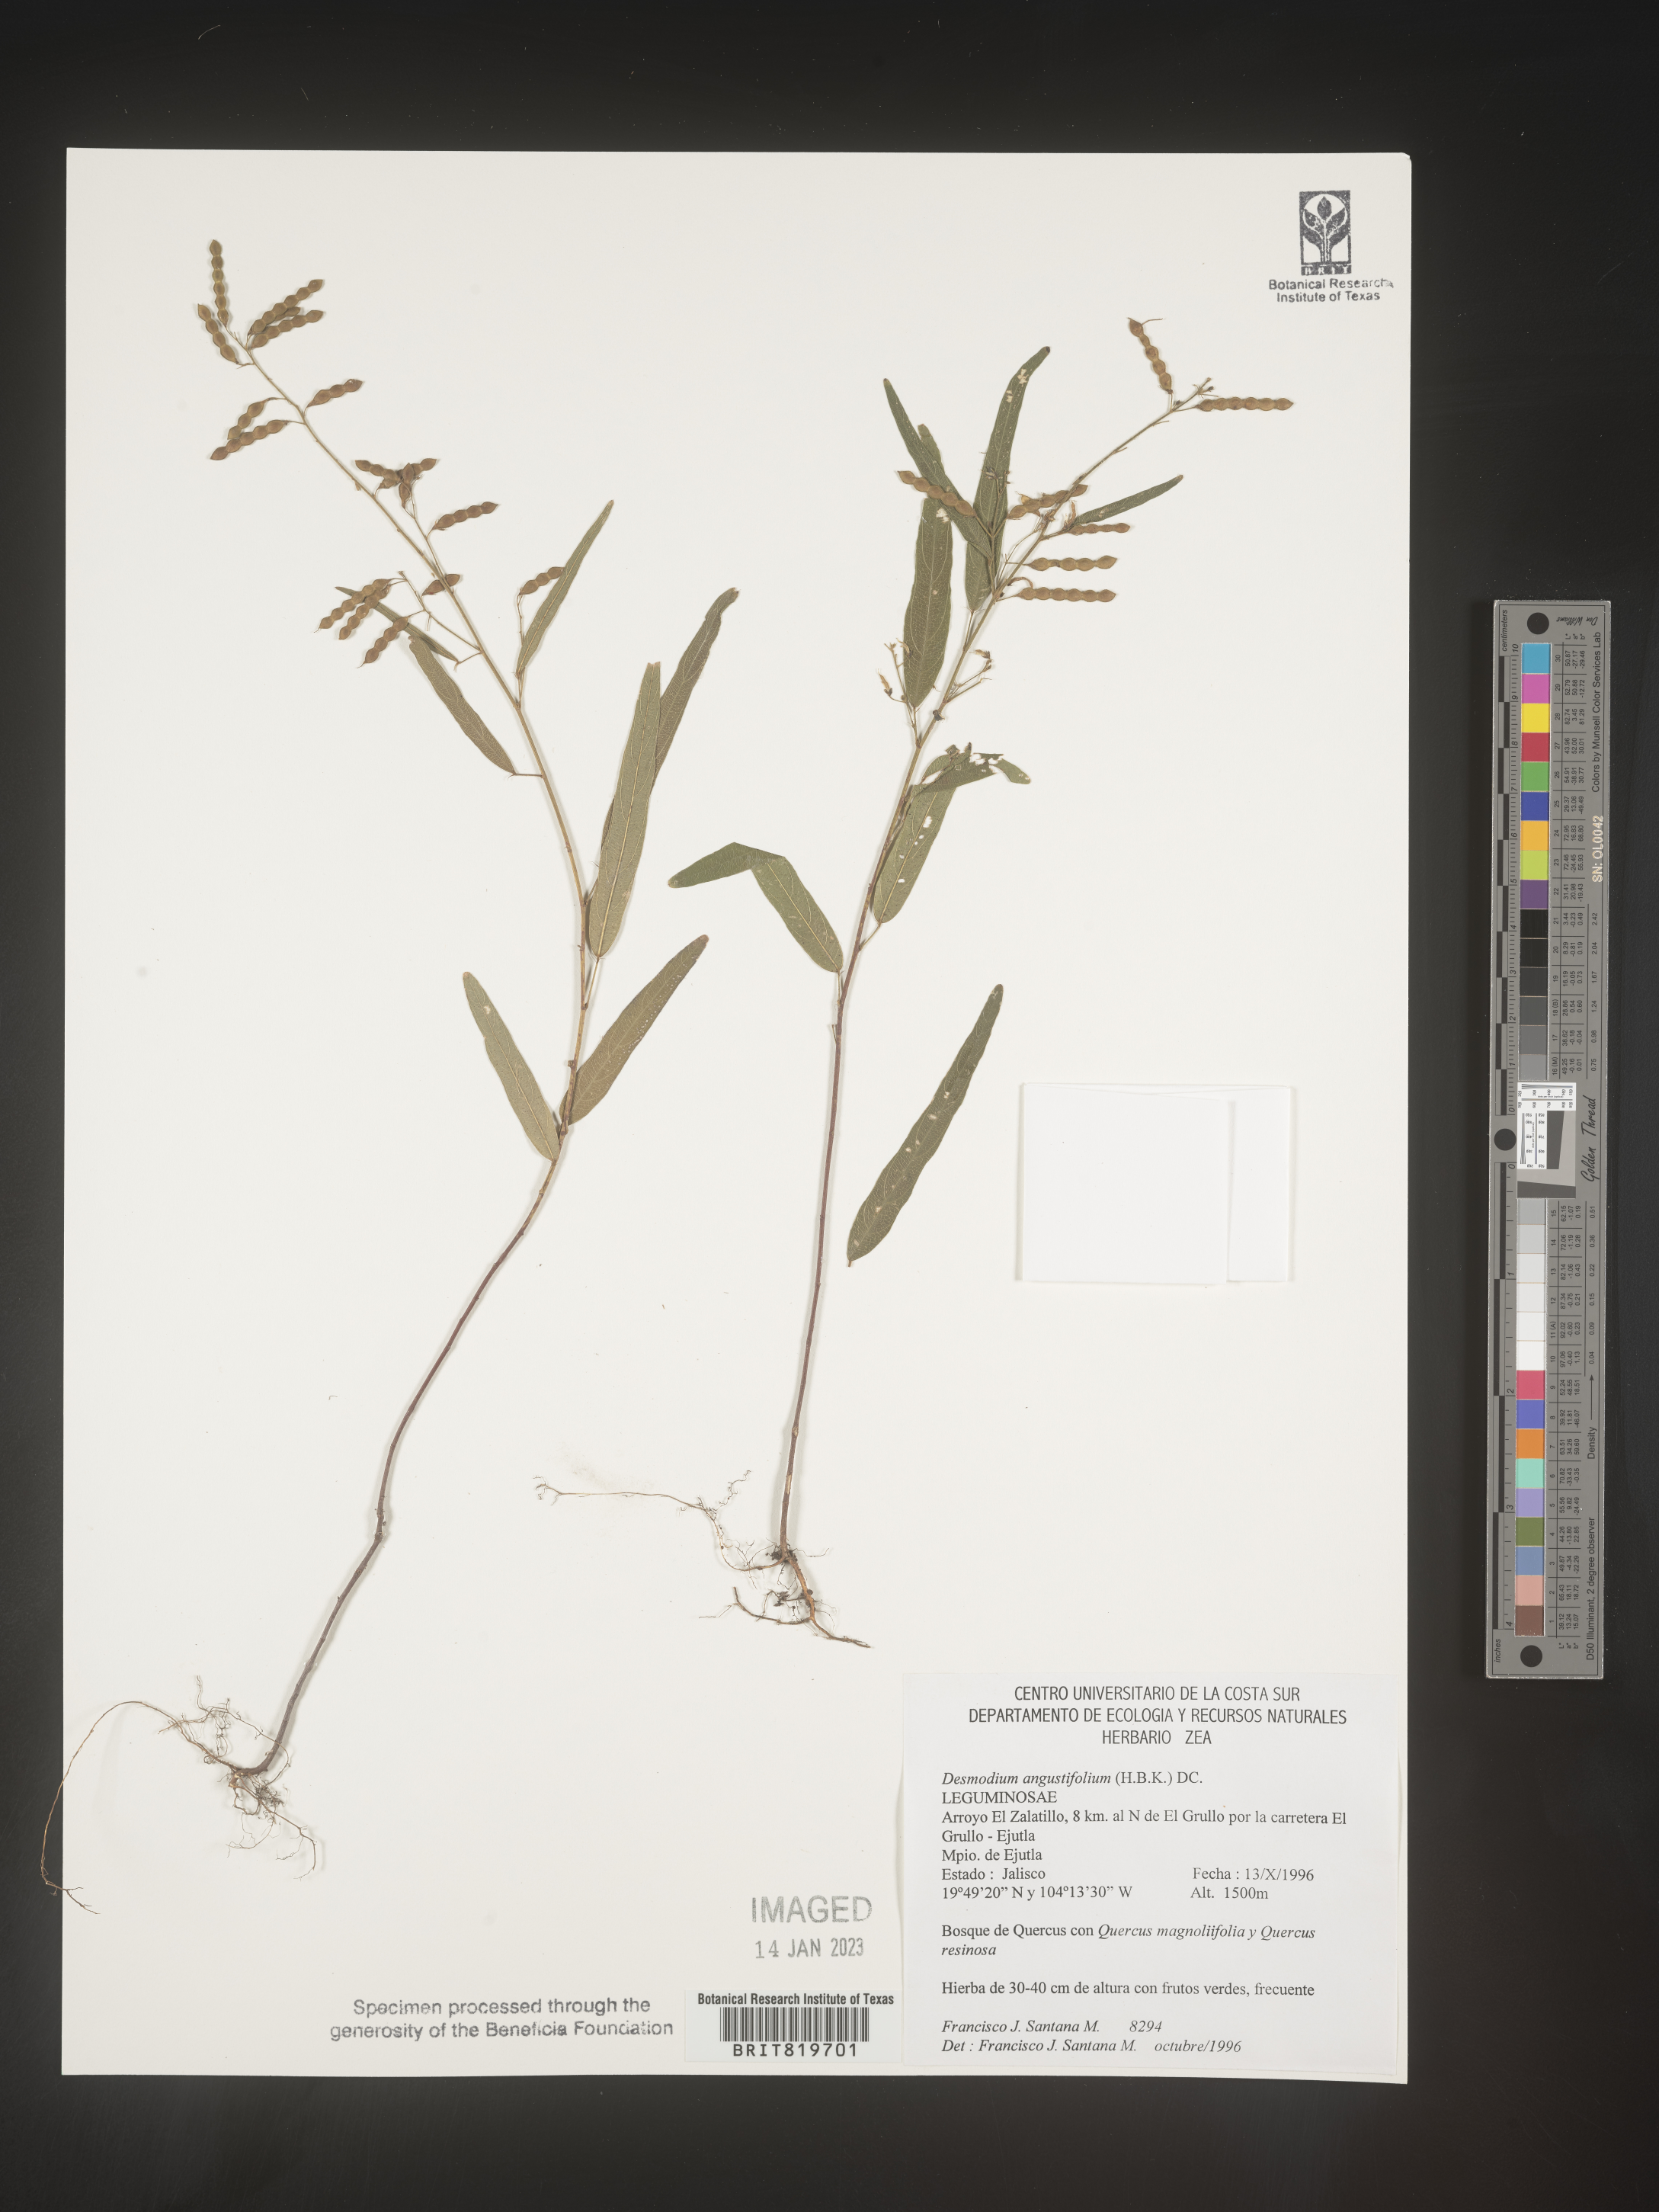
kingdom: Plantae
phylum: Tracheophyta
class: Magnoliopsida
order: Fabales
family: Fabaceae
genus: Desmodium
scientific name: Desmodium
